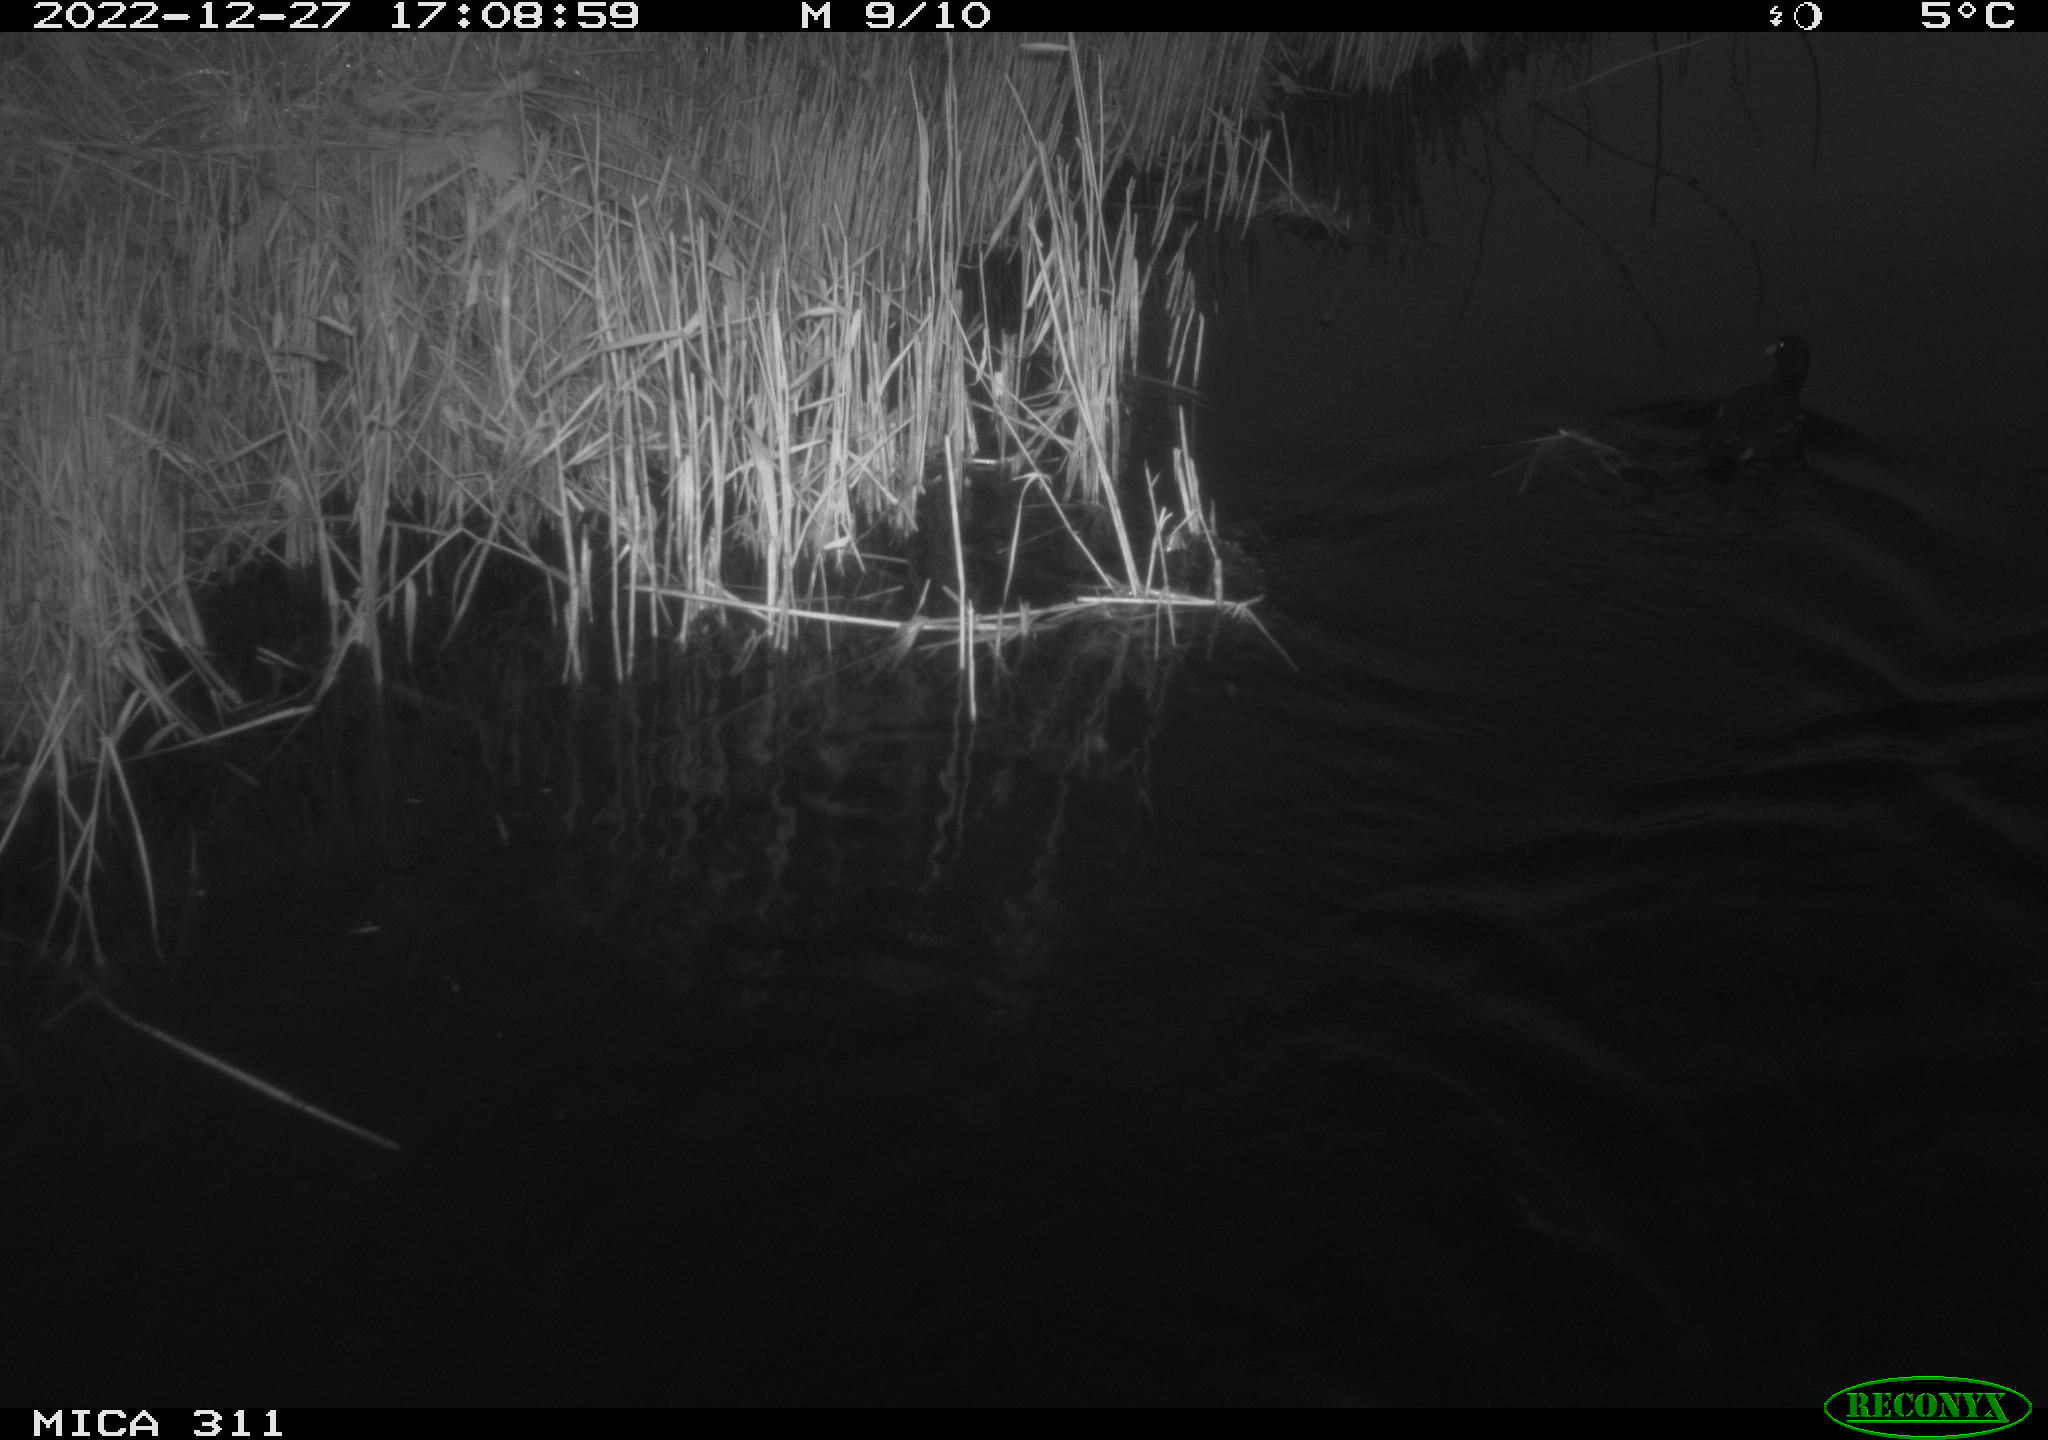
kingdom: Animalia
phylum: Chordata
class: Aves
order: Gruiformes
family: Rallidae
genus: Gallinula
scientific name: Gallinula chloropus
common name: Common moorhen
